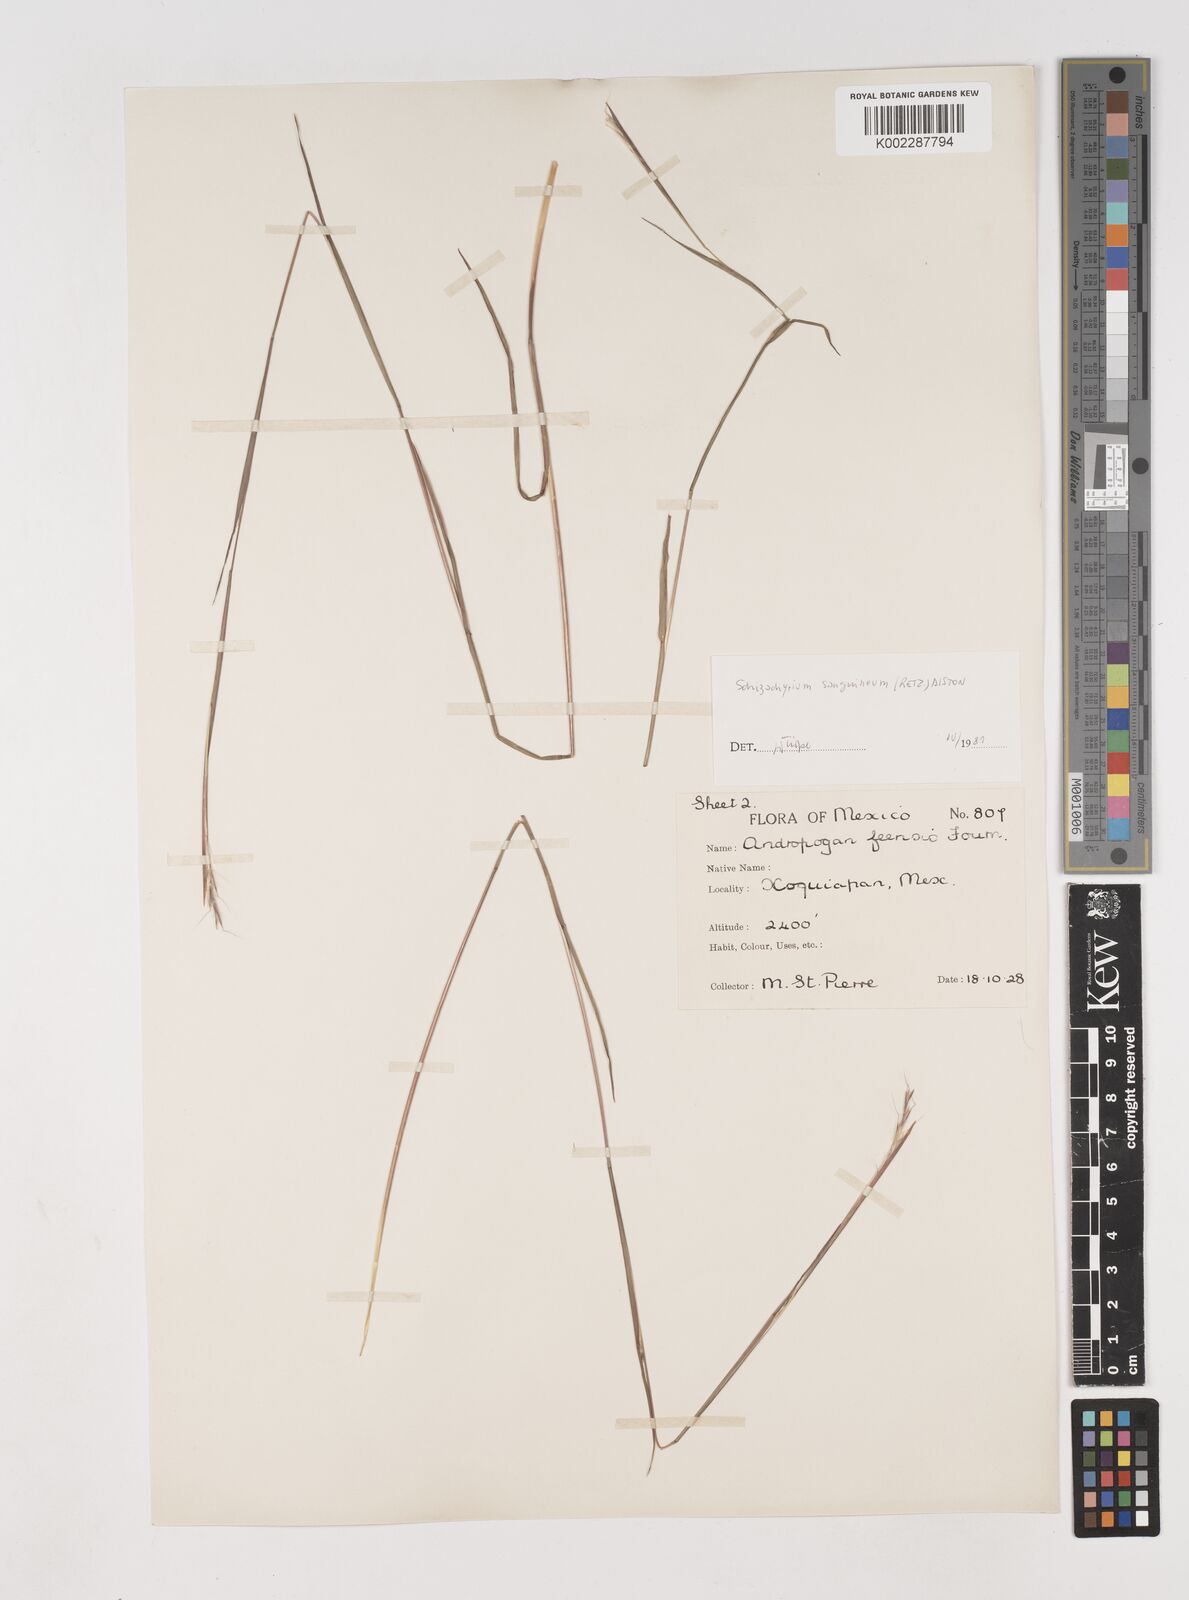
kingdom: Plantae
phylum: Tracheophyta
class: Liliopsida
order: Poales
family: Poaceae
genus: Schizachyrium
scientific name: Schizachyrium sanguineum
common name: Crimson bluestem
